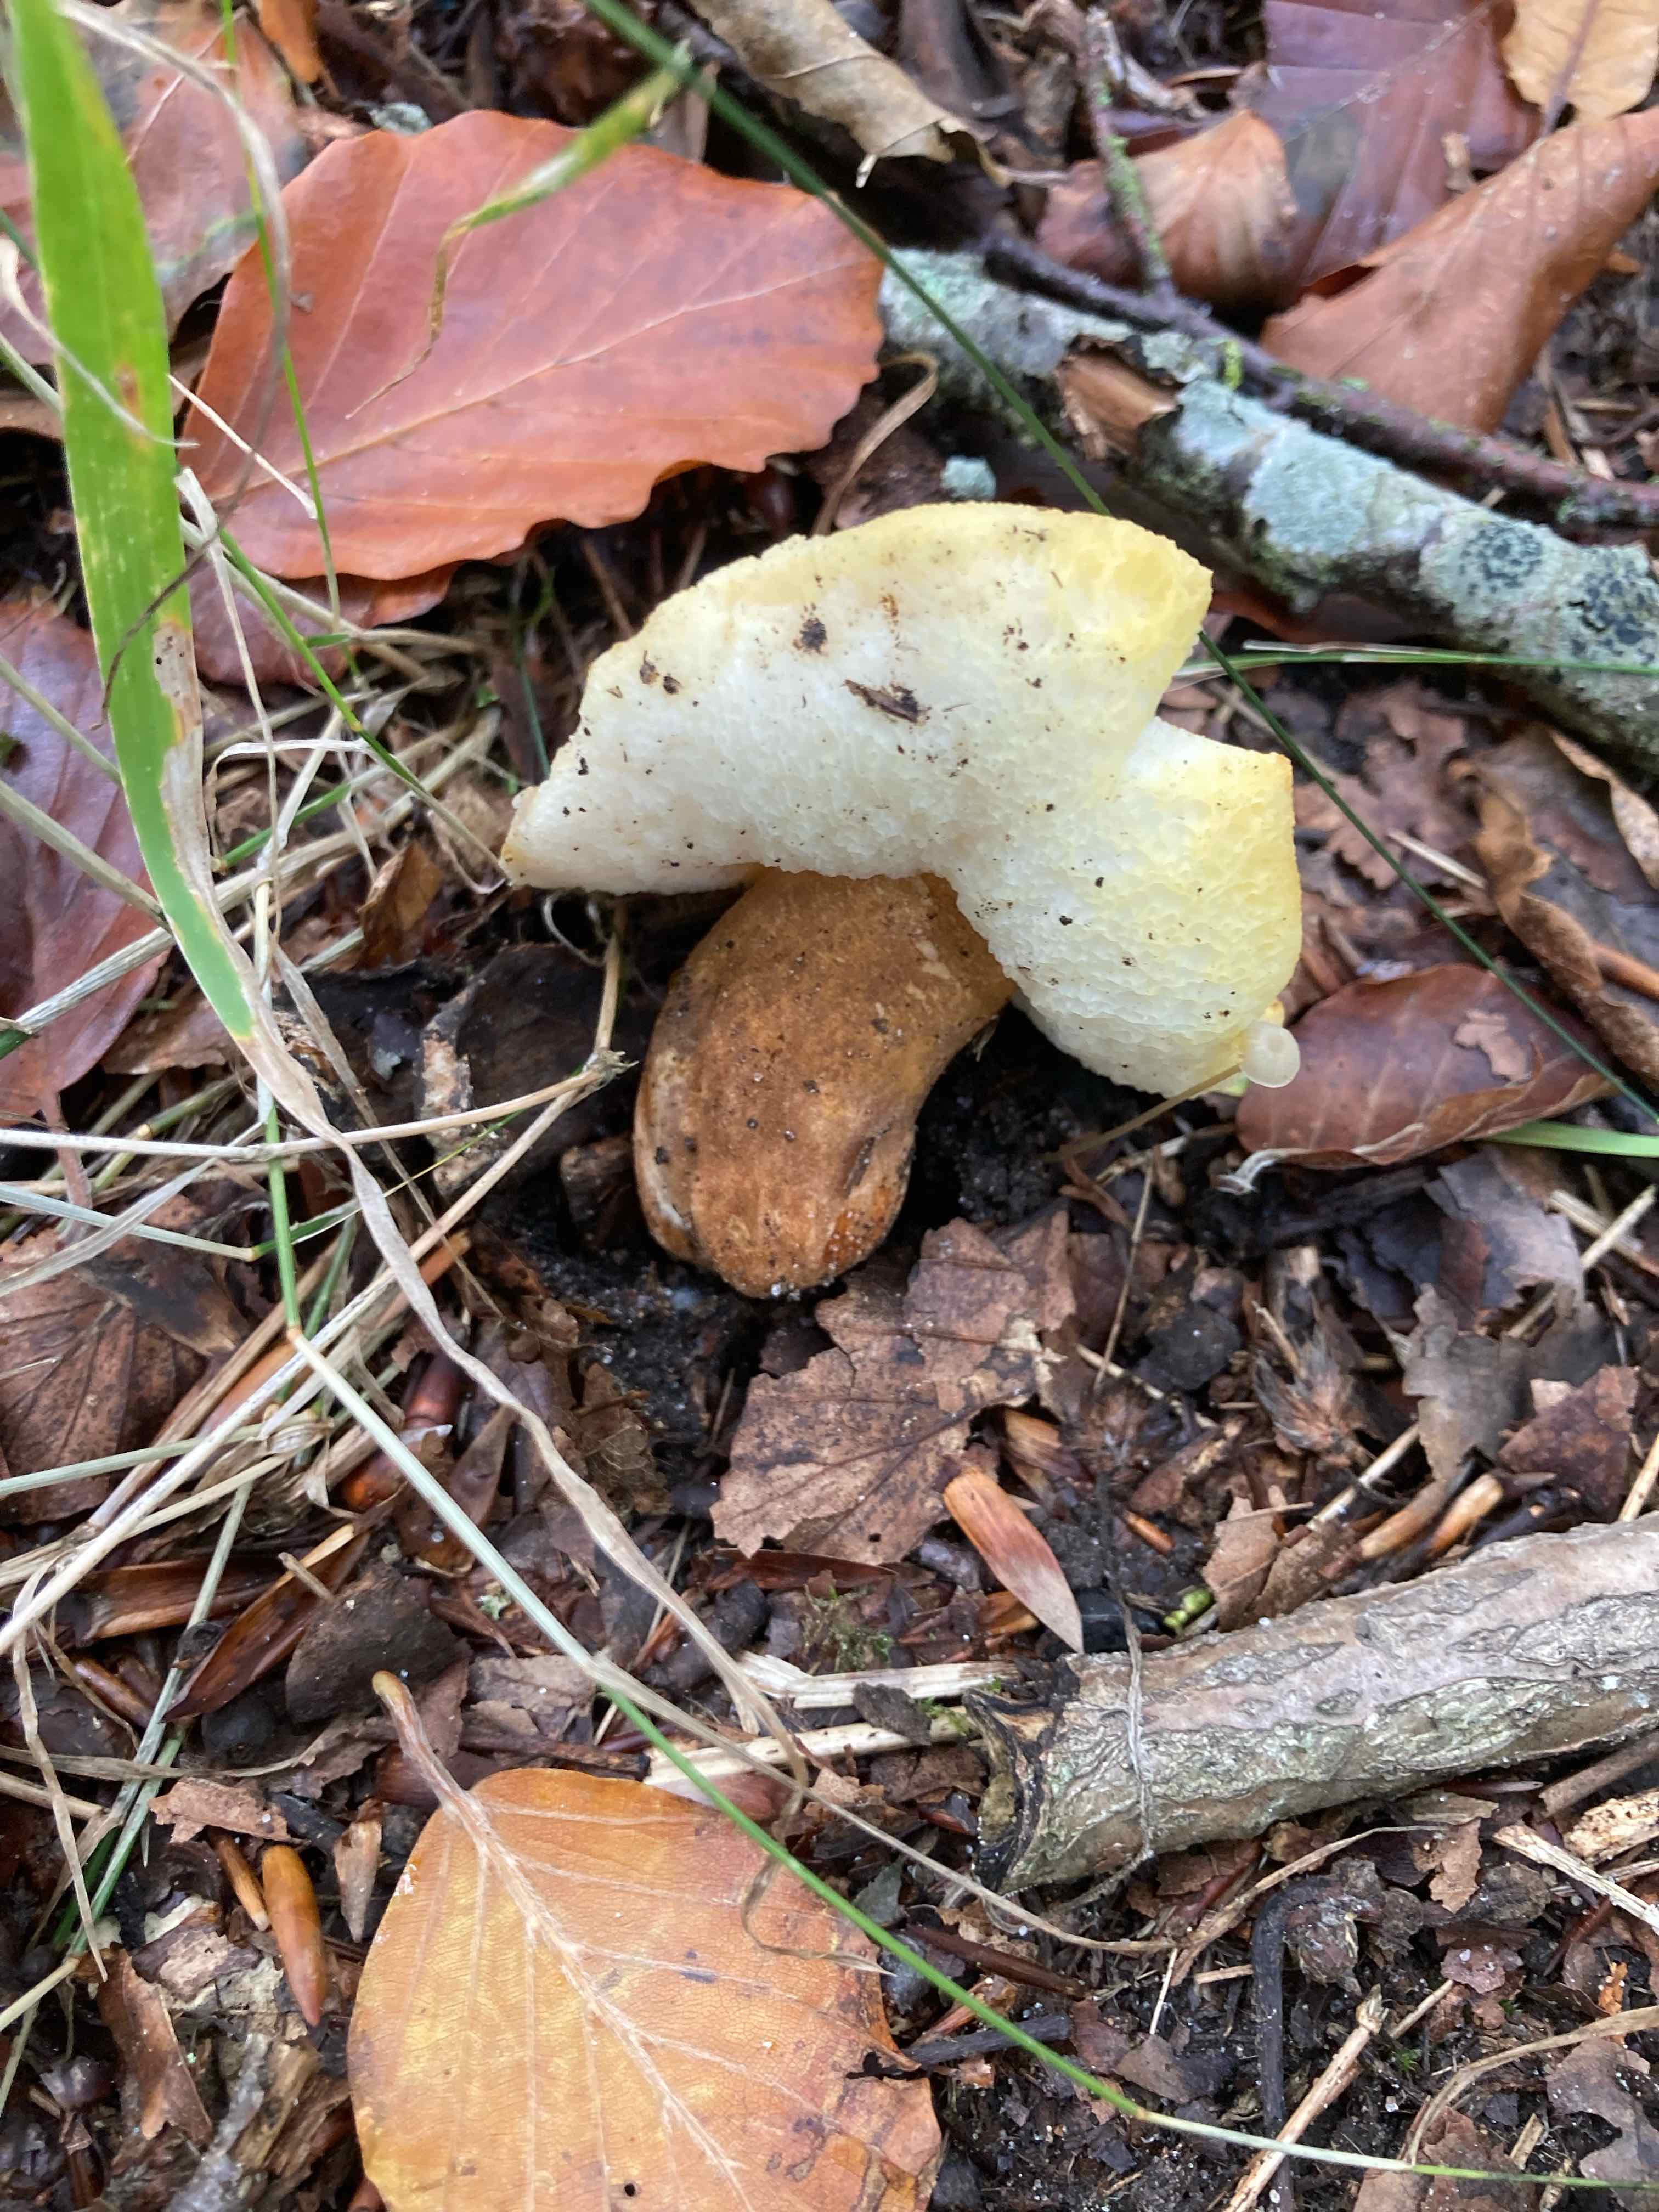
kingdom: Fungi
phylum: Basidiomycota
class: Agaricomycetes
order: Boletales
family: Gyroporaceae
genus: Gyroporus
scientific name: Gyroporus castaneus
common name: kastanie-kammerrørhat
